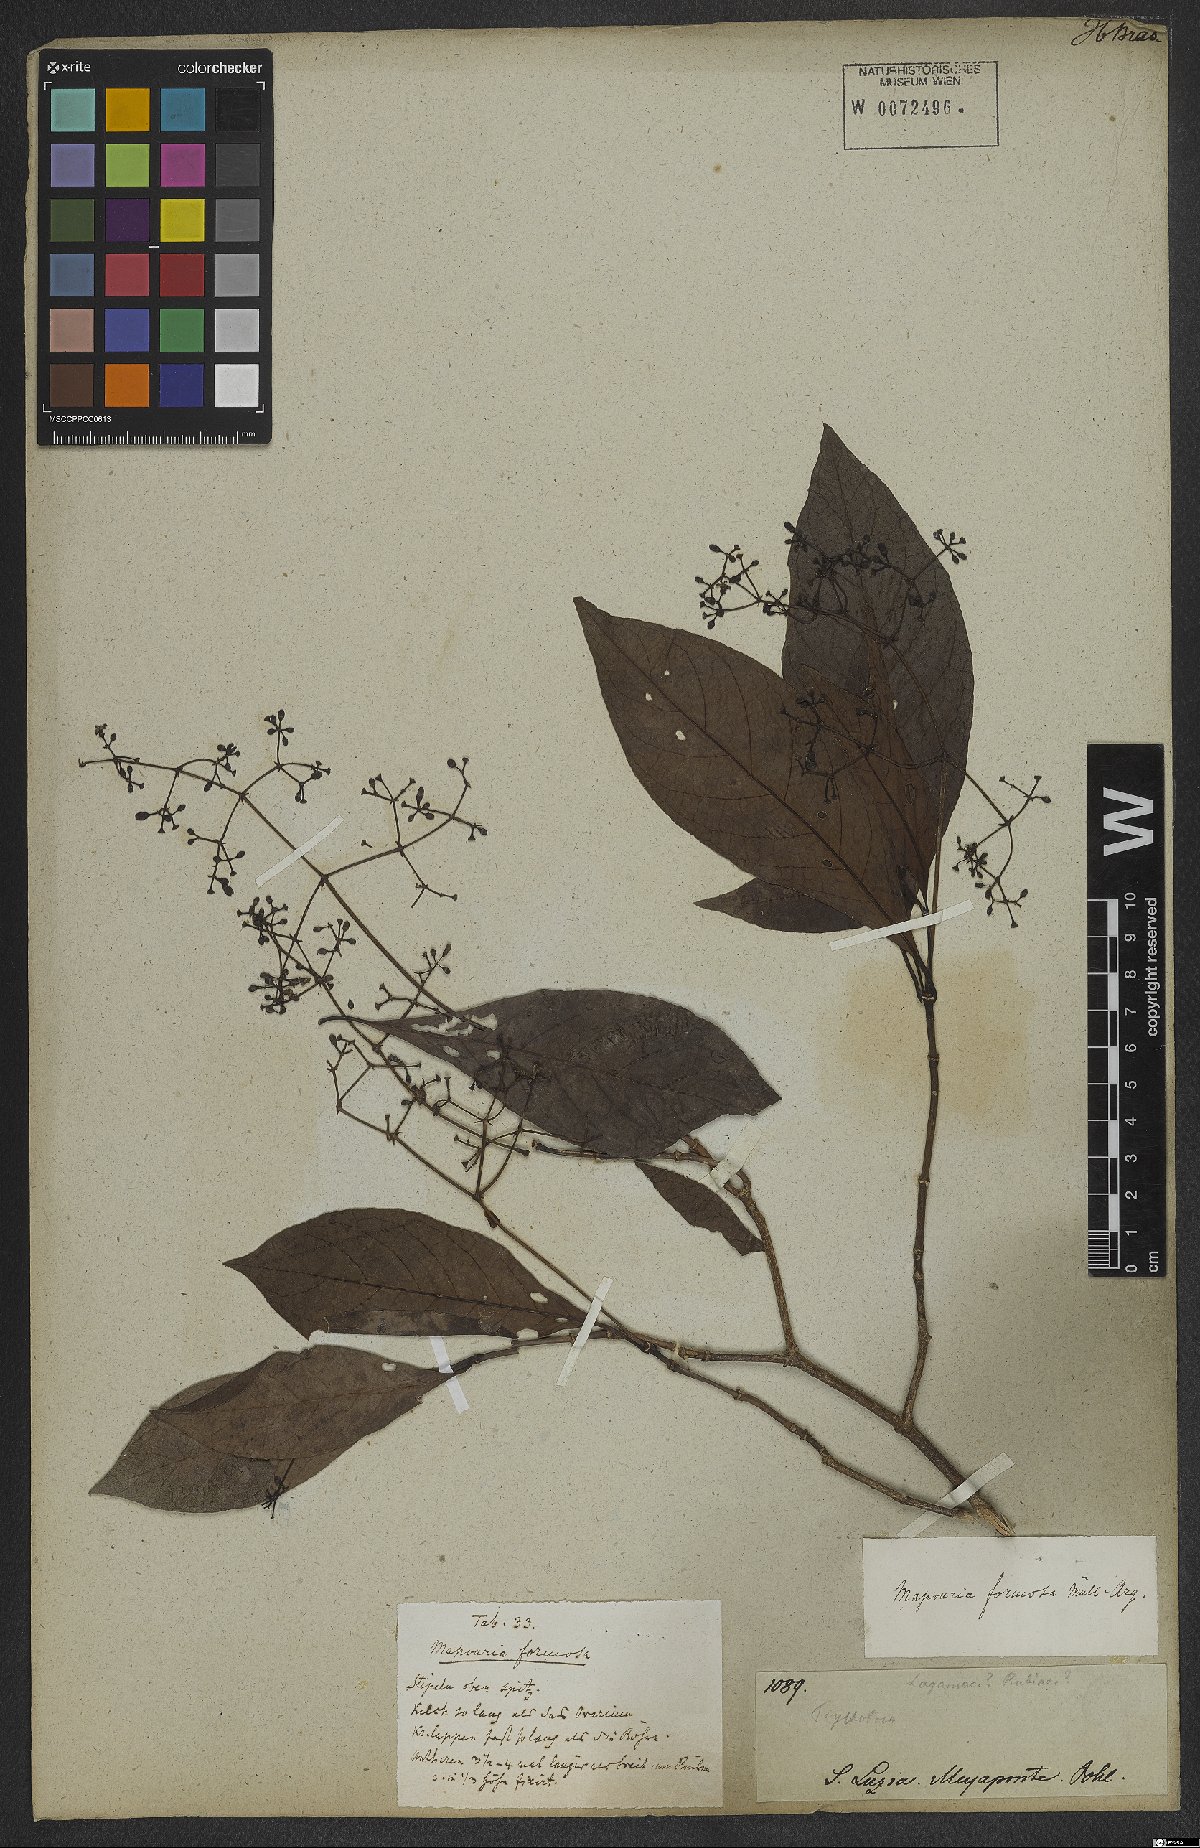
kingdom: Plantae
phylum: Tracheophyta
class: Magnoliopsida
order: Gentianales
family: Rubiaceae
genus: Psychotria
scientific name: Psychotria formosa
